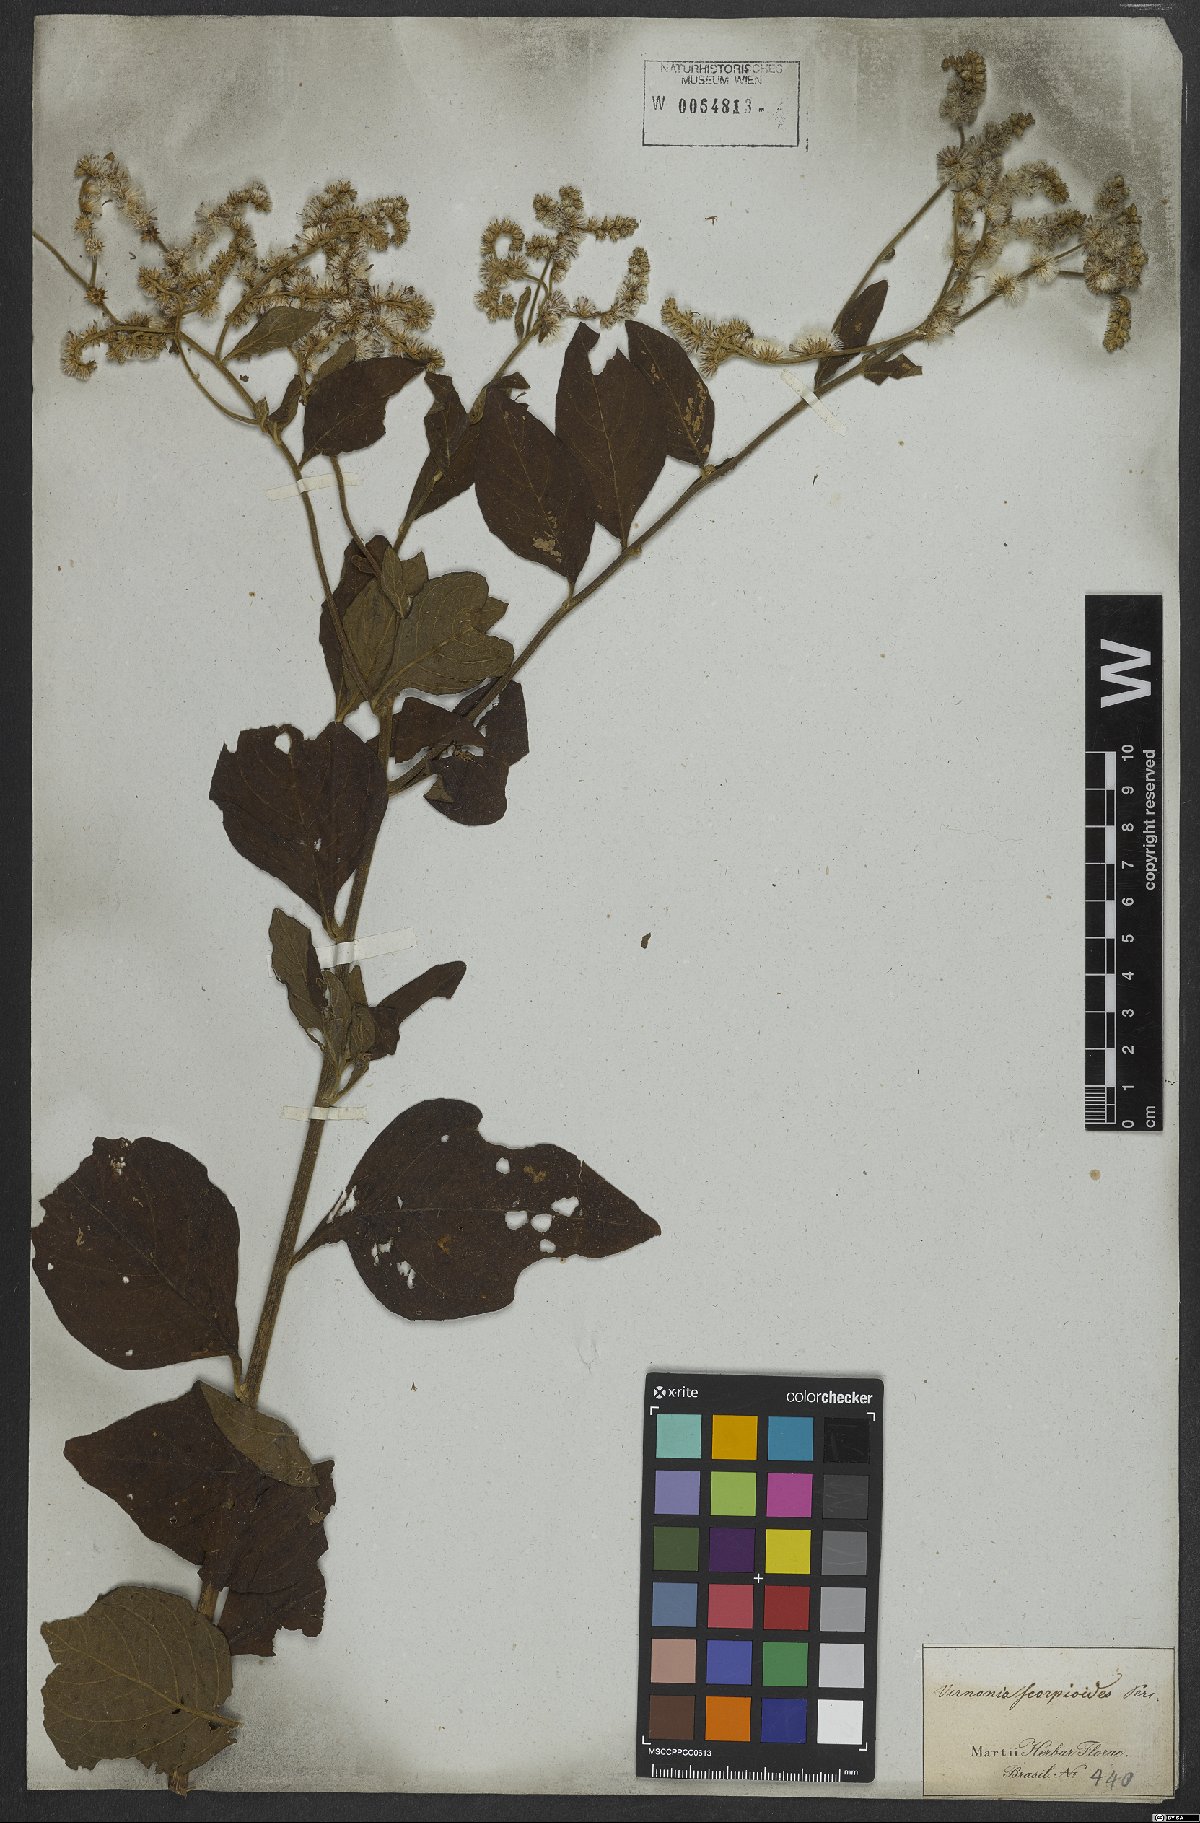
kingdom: Plantae
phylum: Tracheophyta
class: Magnoliopsida
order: Asterales
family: Asteraceae
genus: Cyrtocymura
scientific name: Cyrtocymura scorpioides
